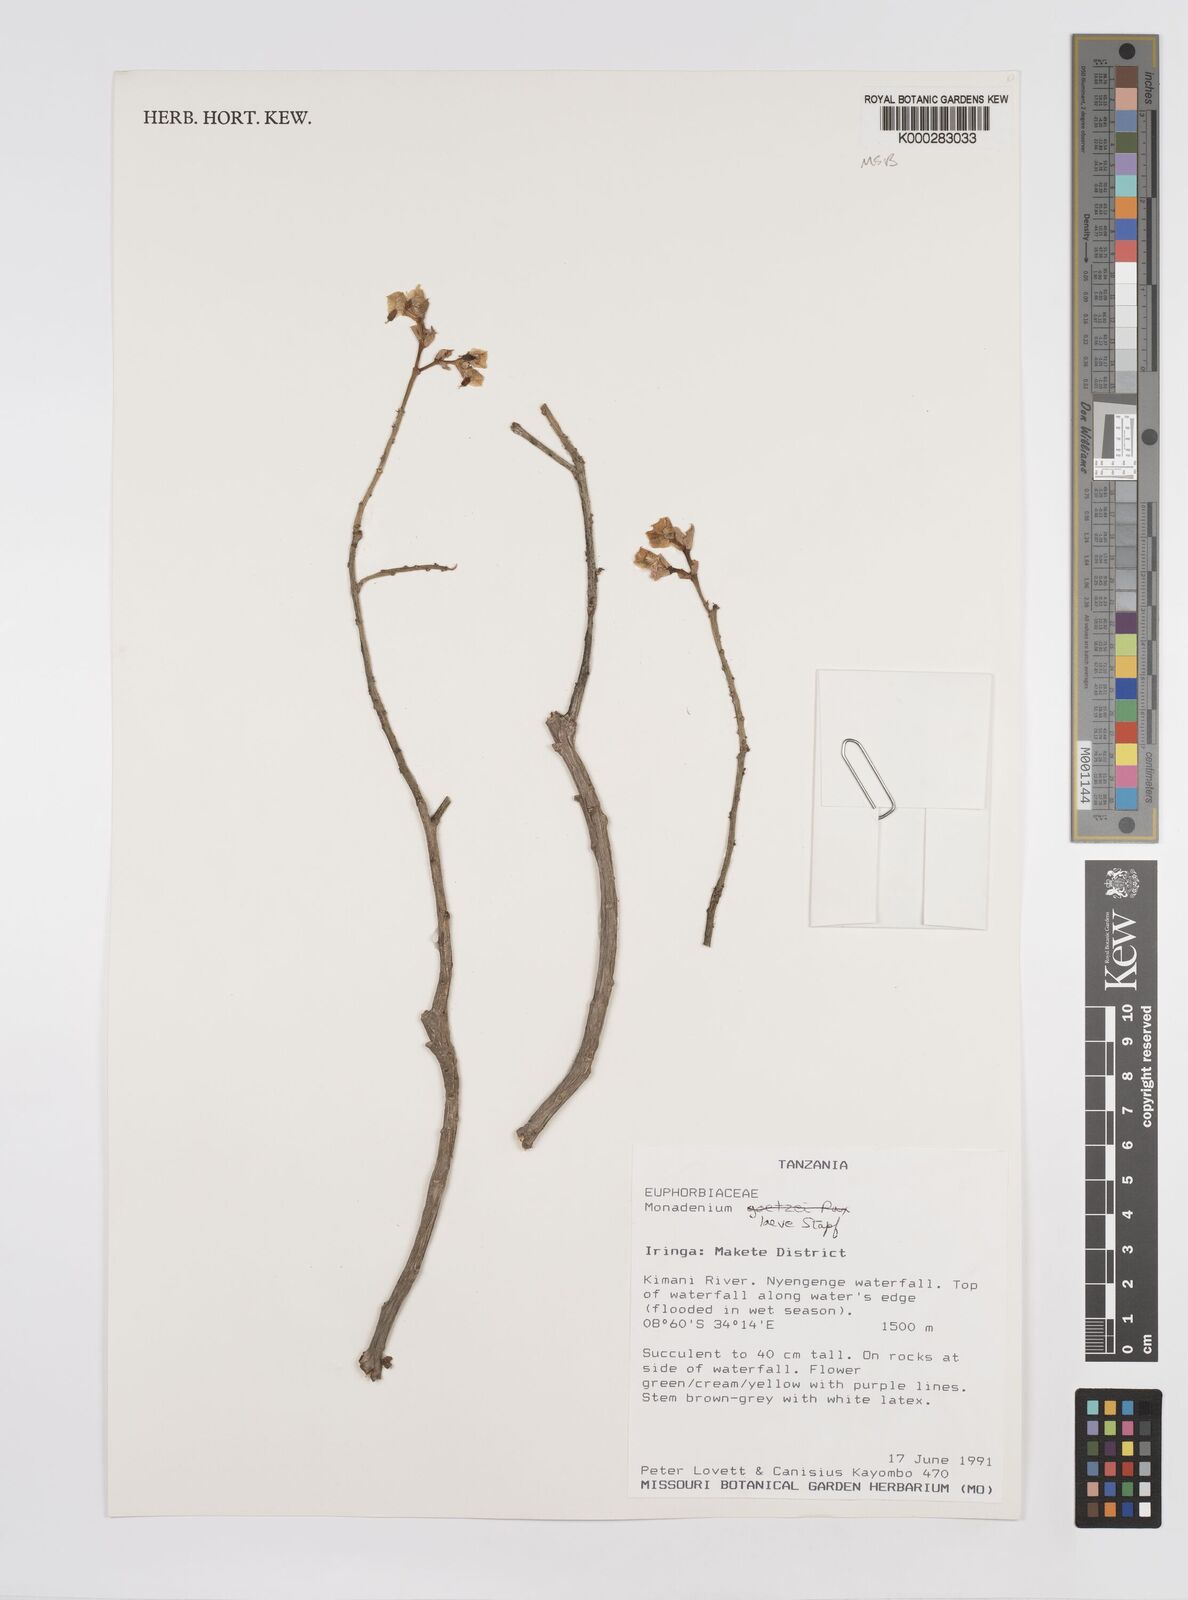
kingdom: Plantae
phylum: Tracheophyta
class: Magnoliopsida
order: Malpighiales
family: Euphorbiaceae
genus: Euphorbia
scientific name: Euphorbia pseudolaevis
